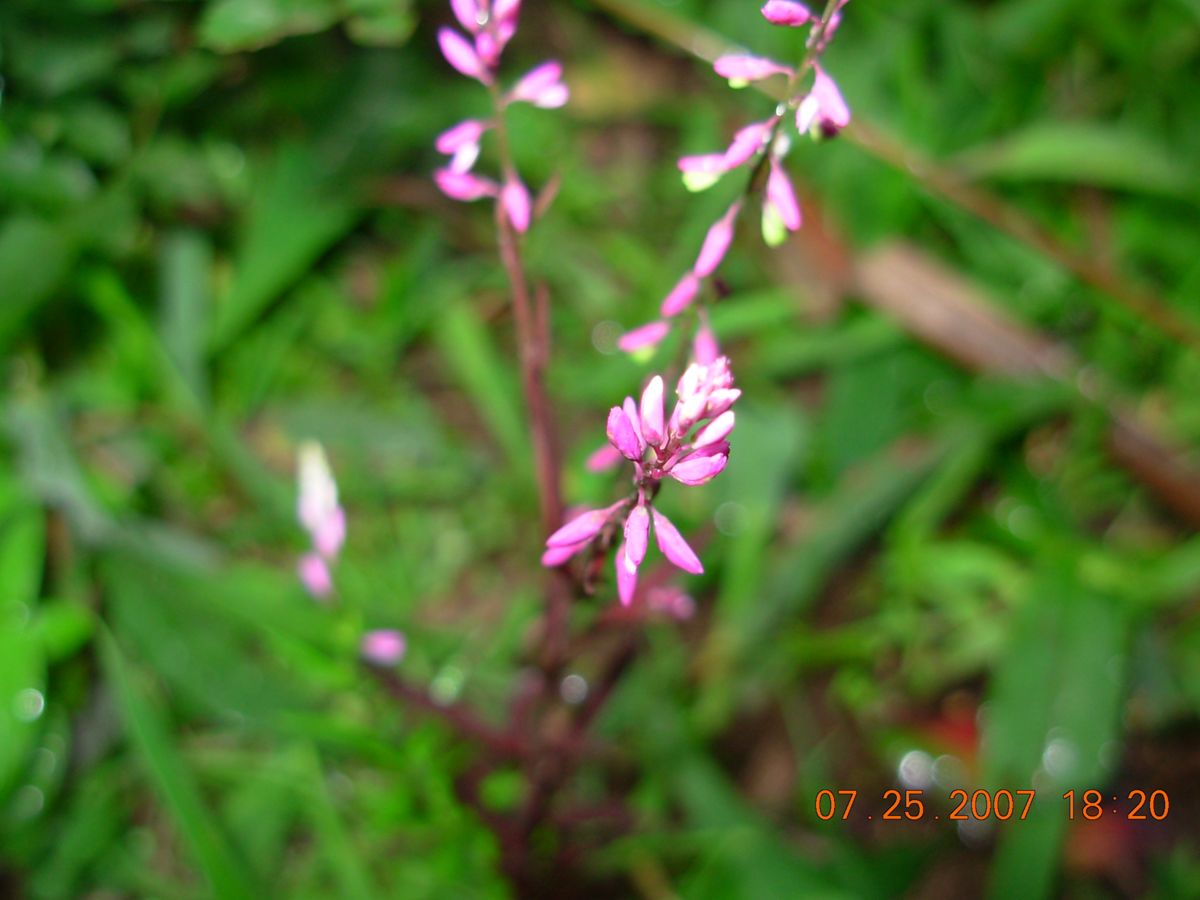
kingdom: Plantae
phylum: Tracheophyta
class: Magnoliopsida
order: Fabales
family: Polygalaceae
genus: Polygala
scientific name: Polygala paniculata
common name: Orosne
